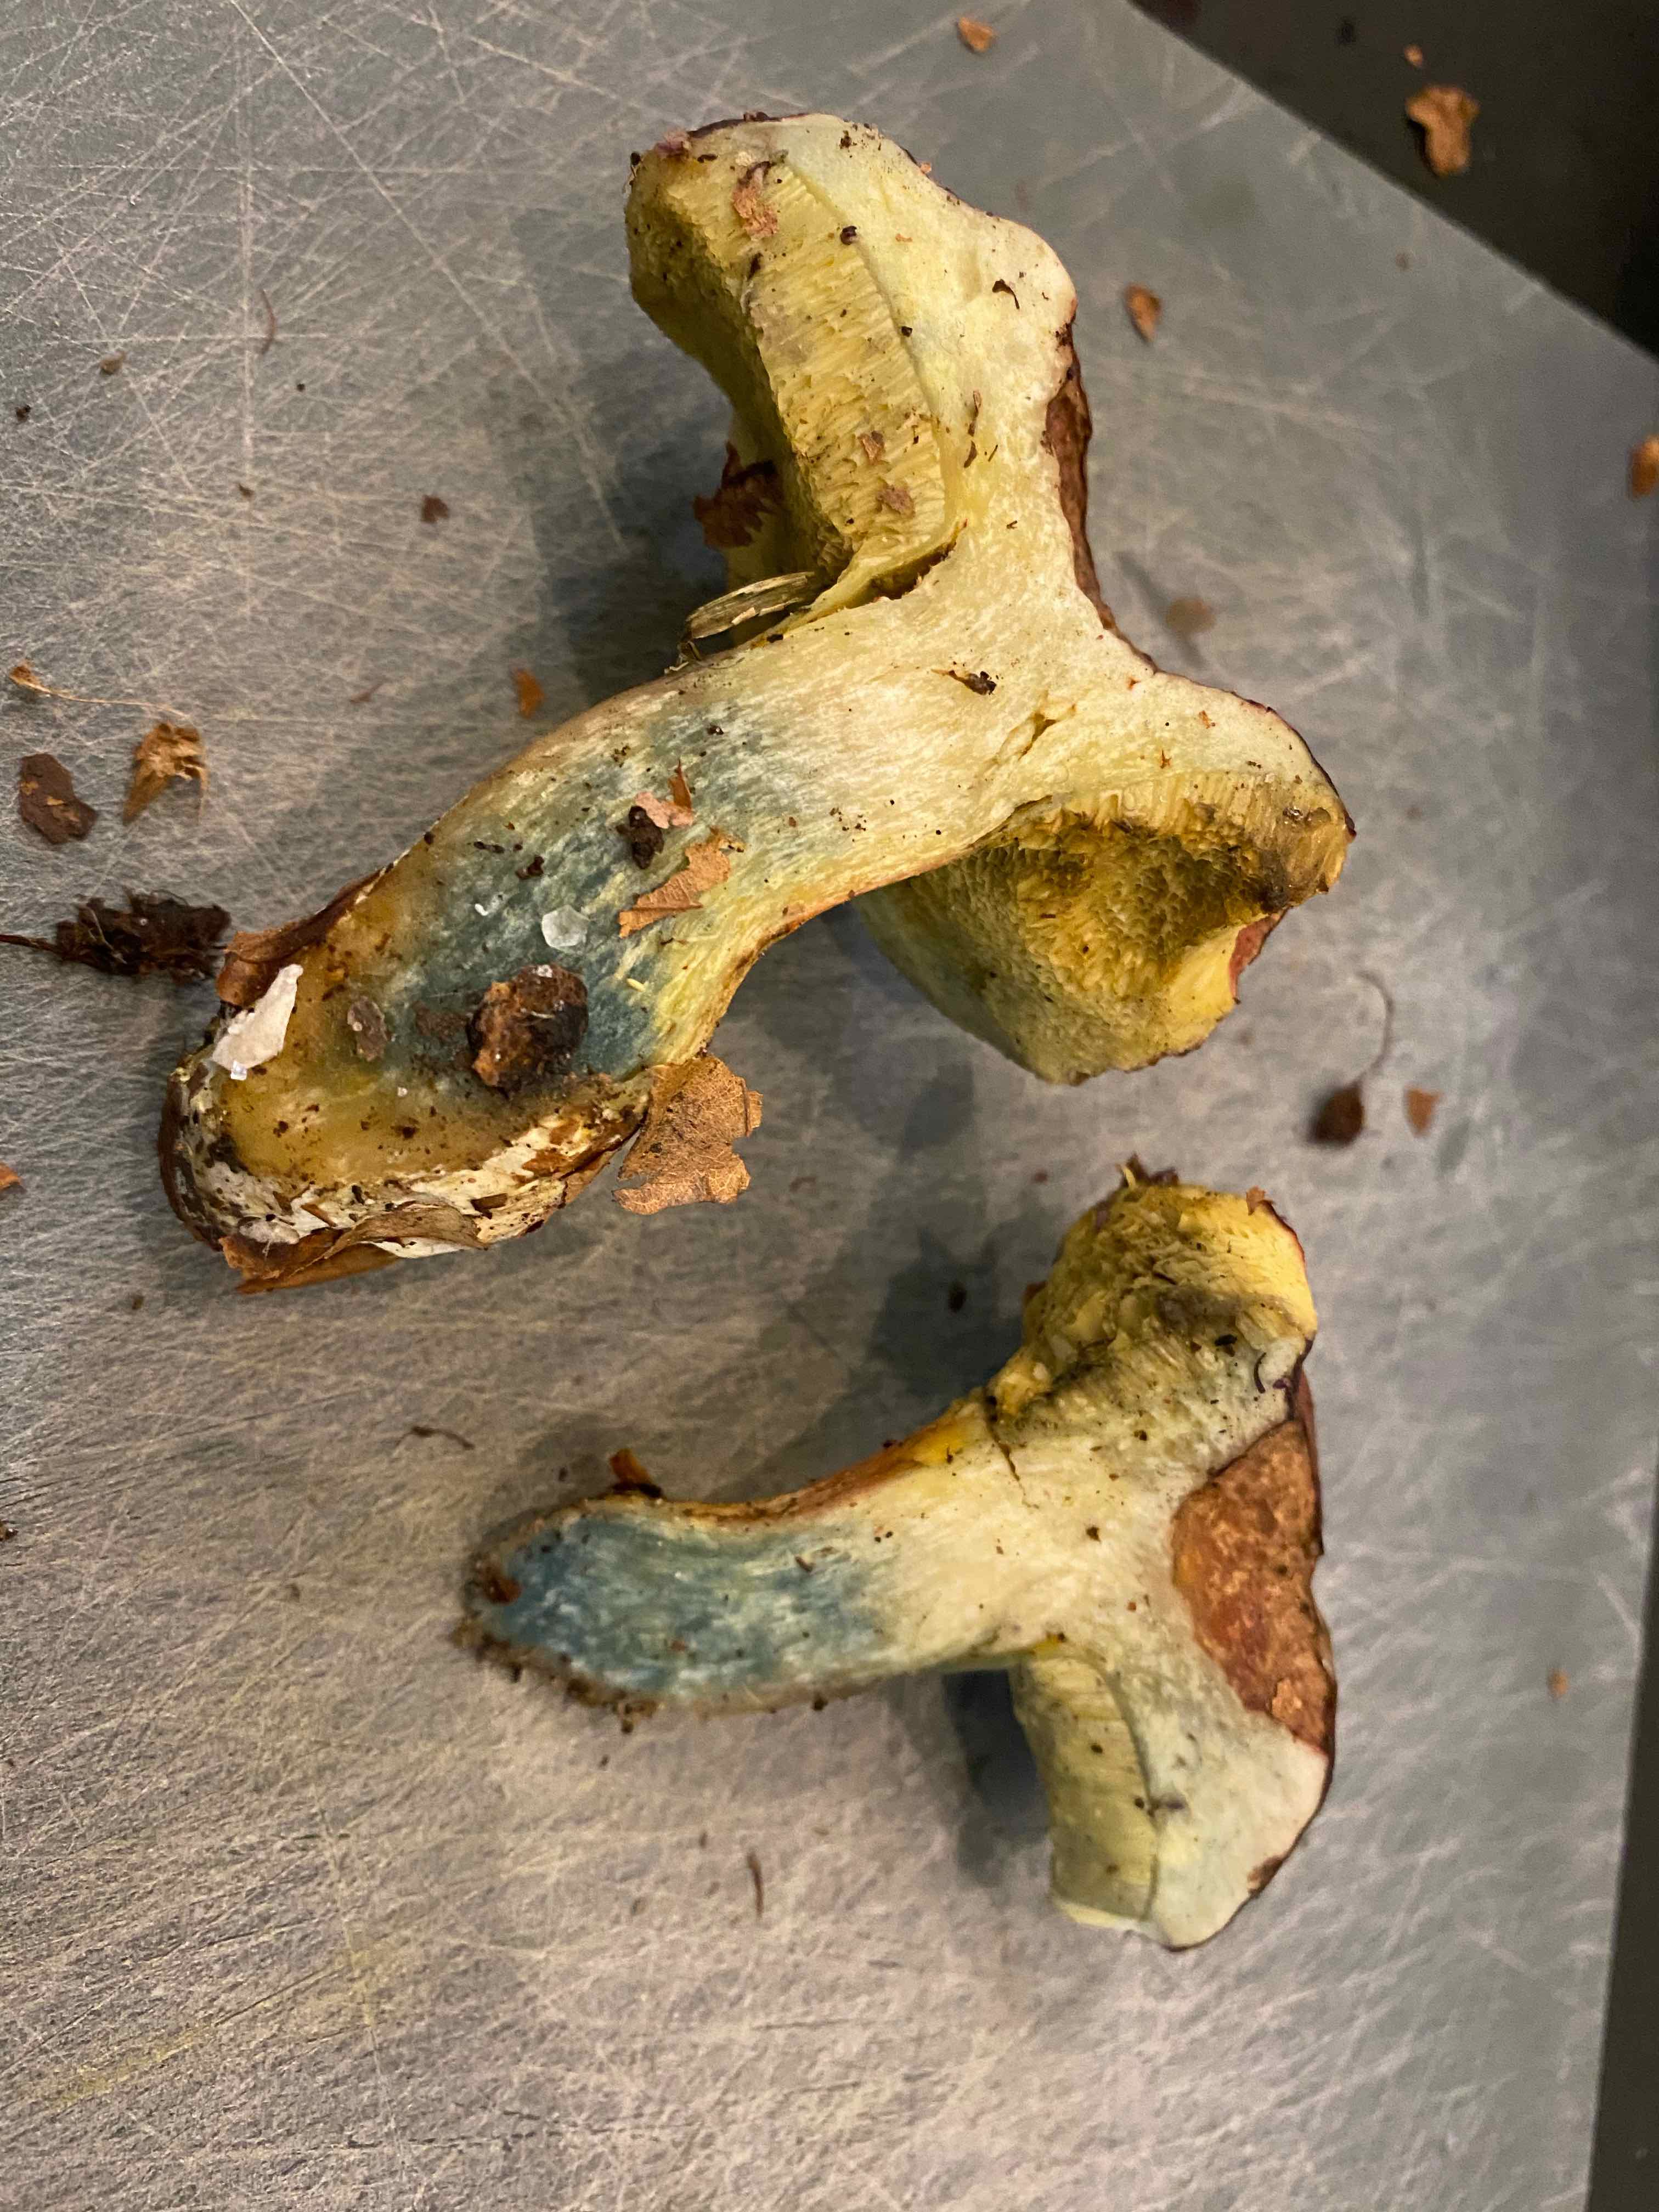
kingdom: Fungi
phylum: Basidiomycota
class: Agaricomycetes
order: Boletales
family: Boletaceae
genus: Xerocomellus
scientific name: Xerocomellus pruinatus
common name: dugget rørhat
